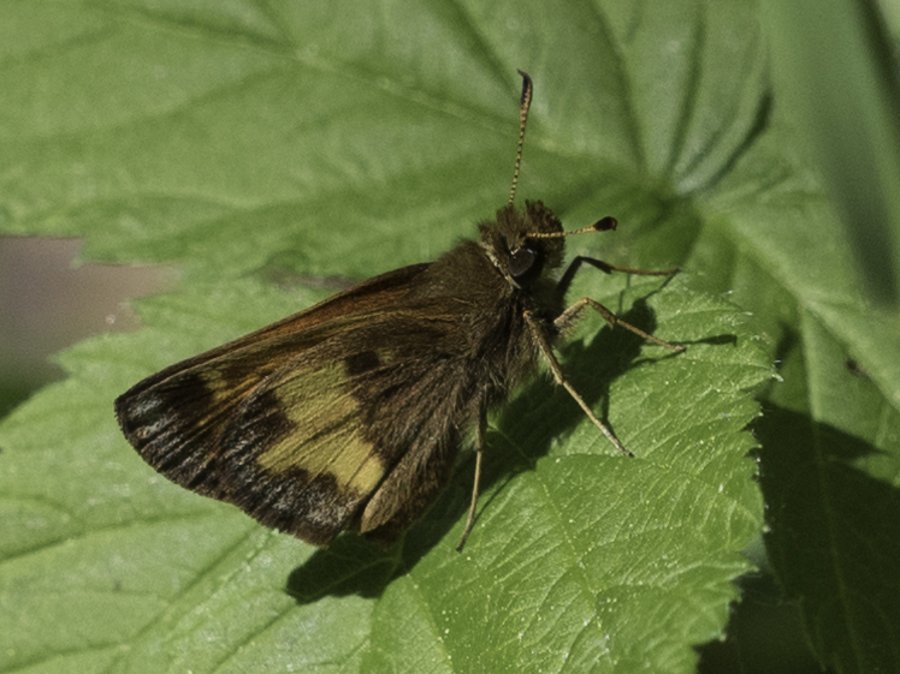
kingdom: Animalia
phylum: Arthropoda
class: Insecta
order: Lepidoptera
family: Hesperiidae
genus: Lon
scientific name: Lon hobomok
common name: Hobomok Skipper
